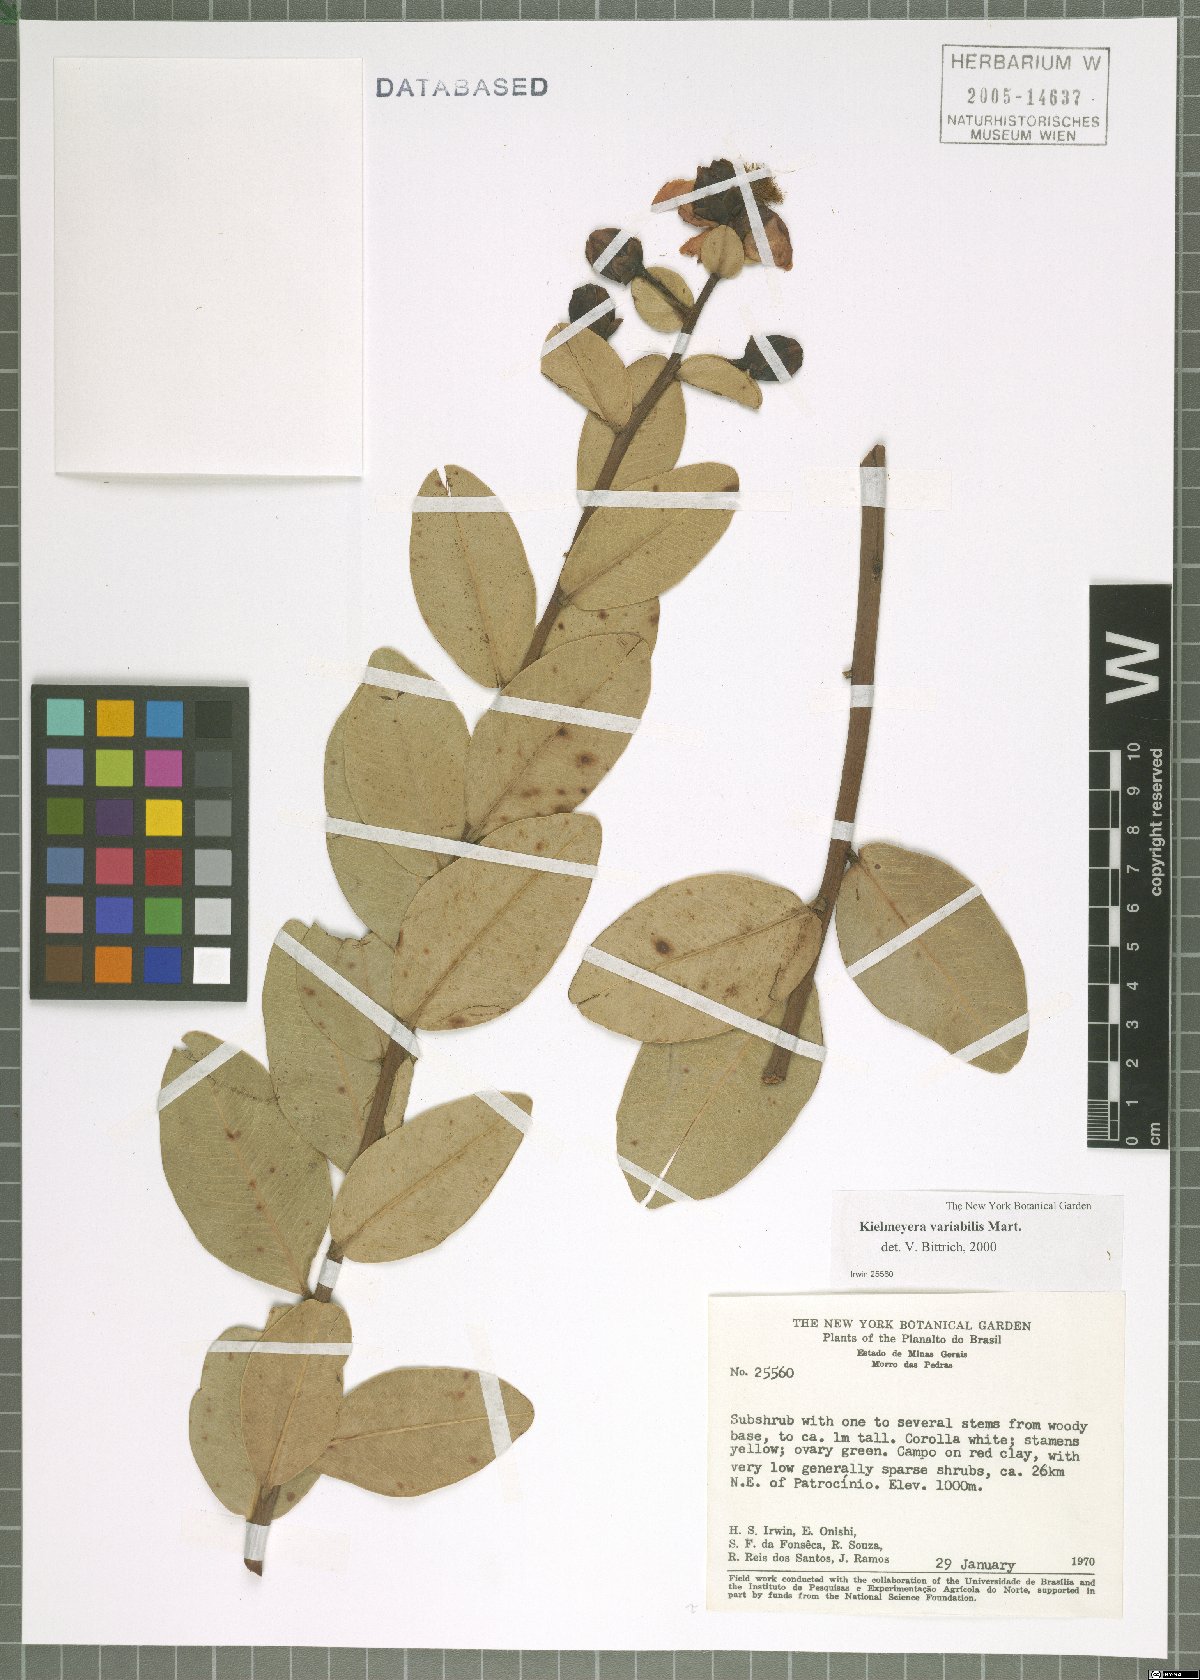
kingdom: Plantae
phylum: Tracheophyta
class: Magnoliopsida
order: Malpighiales
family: Calophyllaceae
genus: Kielmeyera
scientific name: Kielmeyera variabilis
